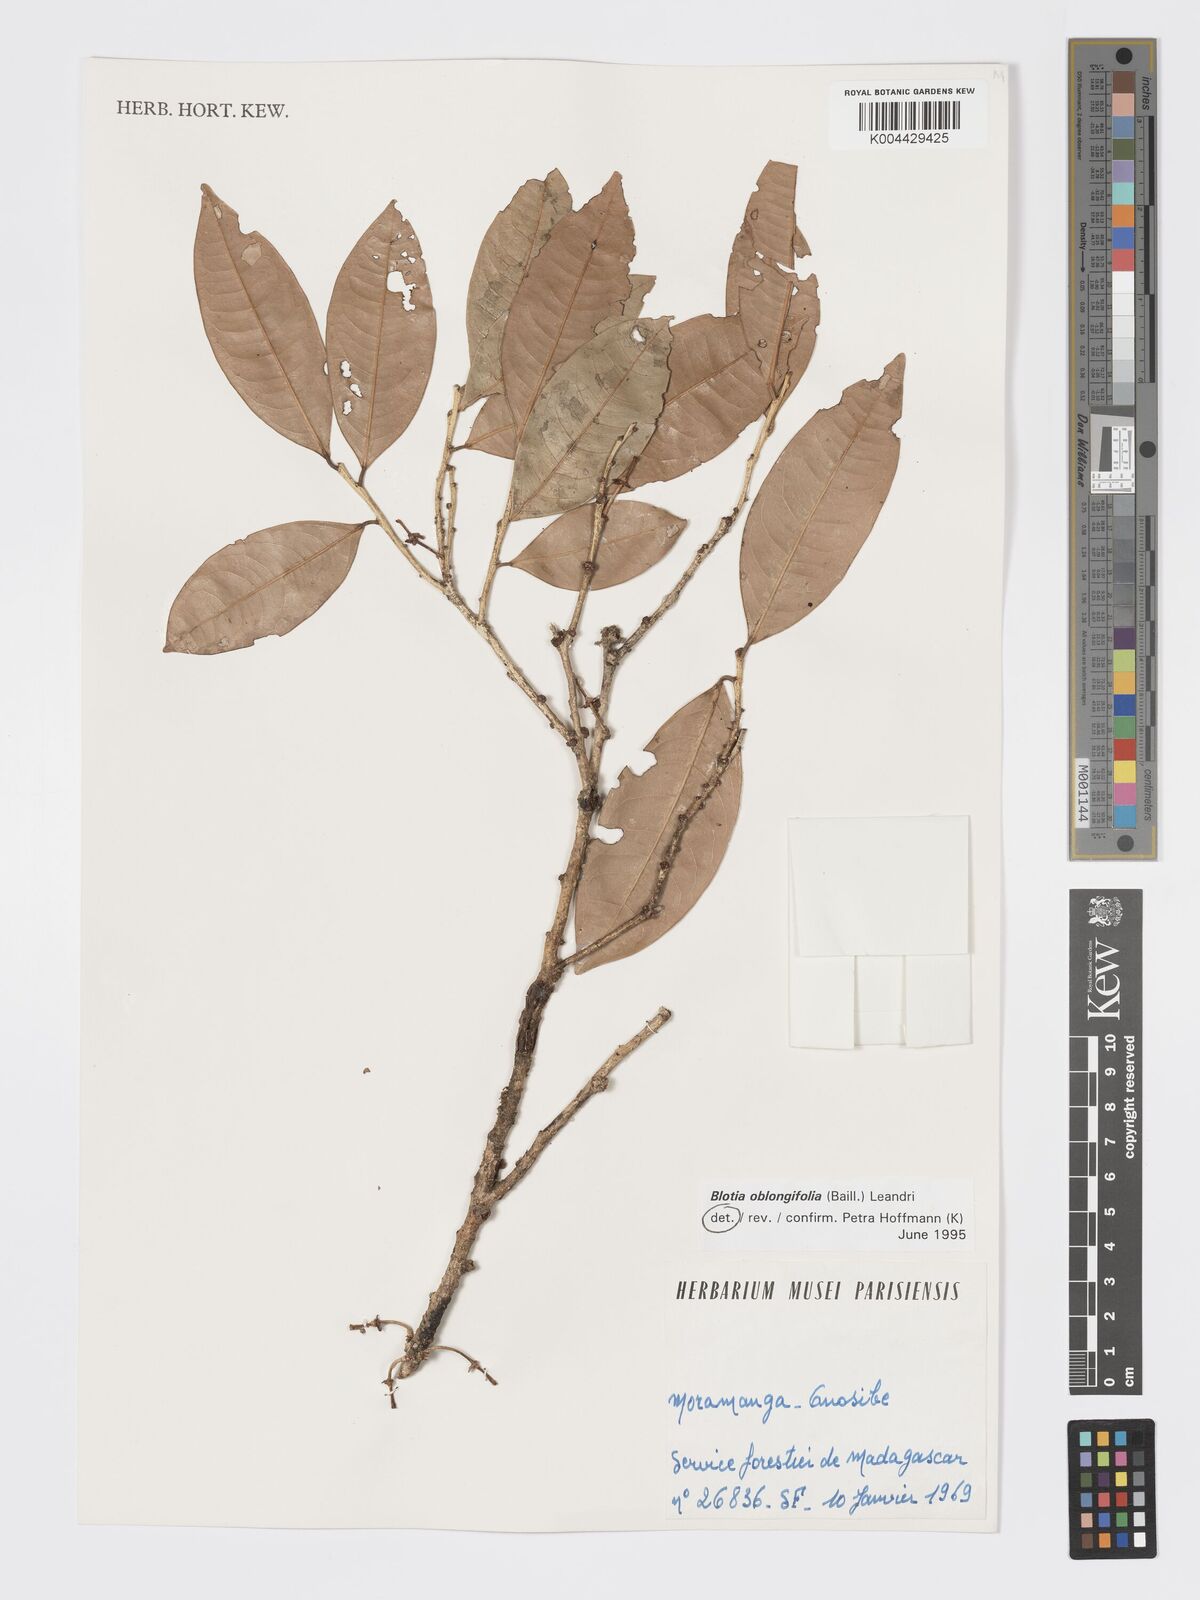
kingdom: Plantae
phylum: Tracheophyta
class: Magnoliopsida
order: Malpighiales
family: Phyllanthaceae
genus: Wielandia
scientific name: Wielandia oblongifolia
